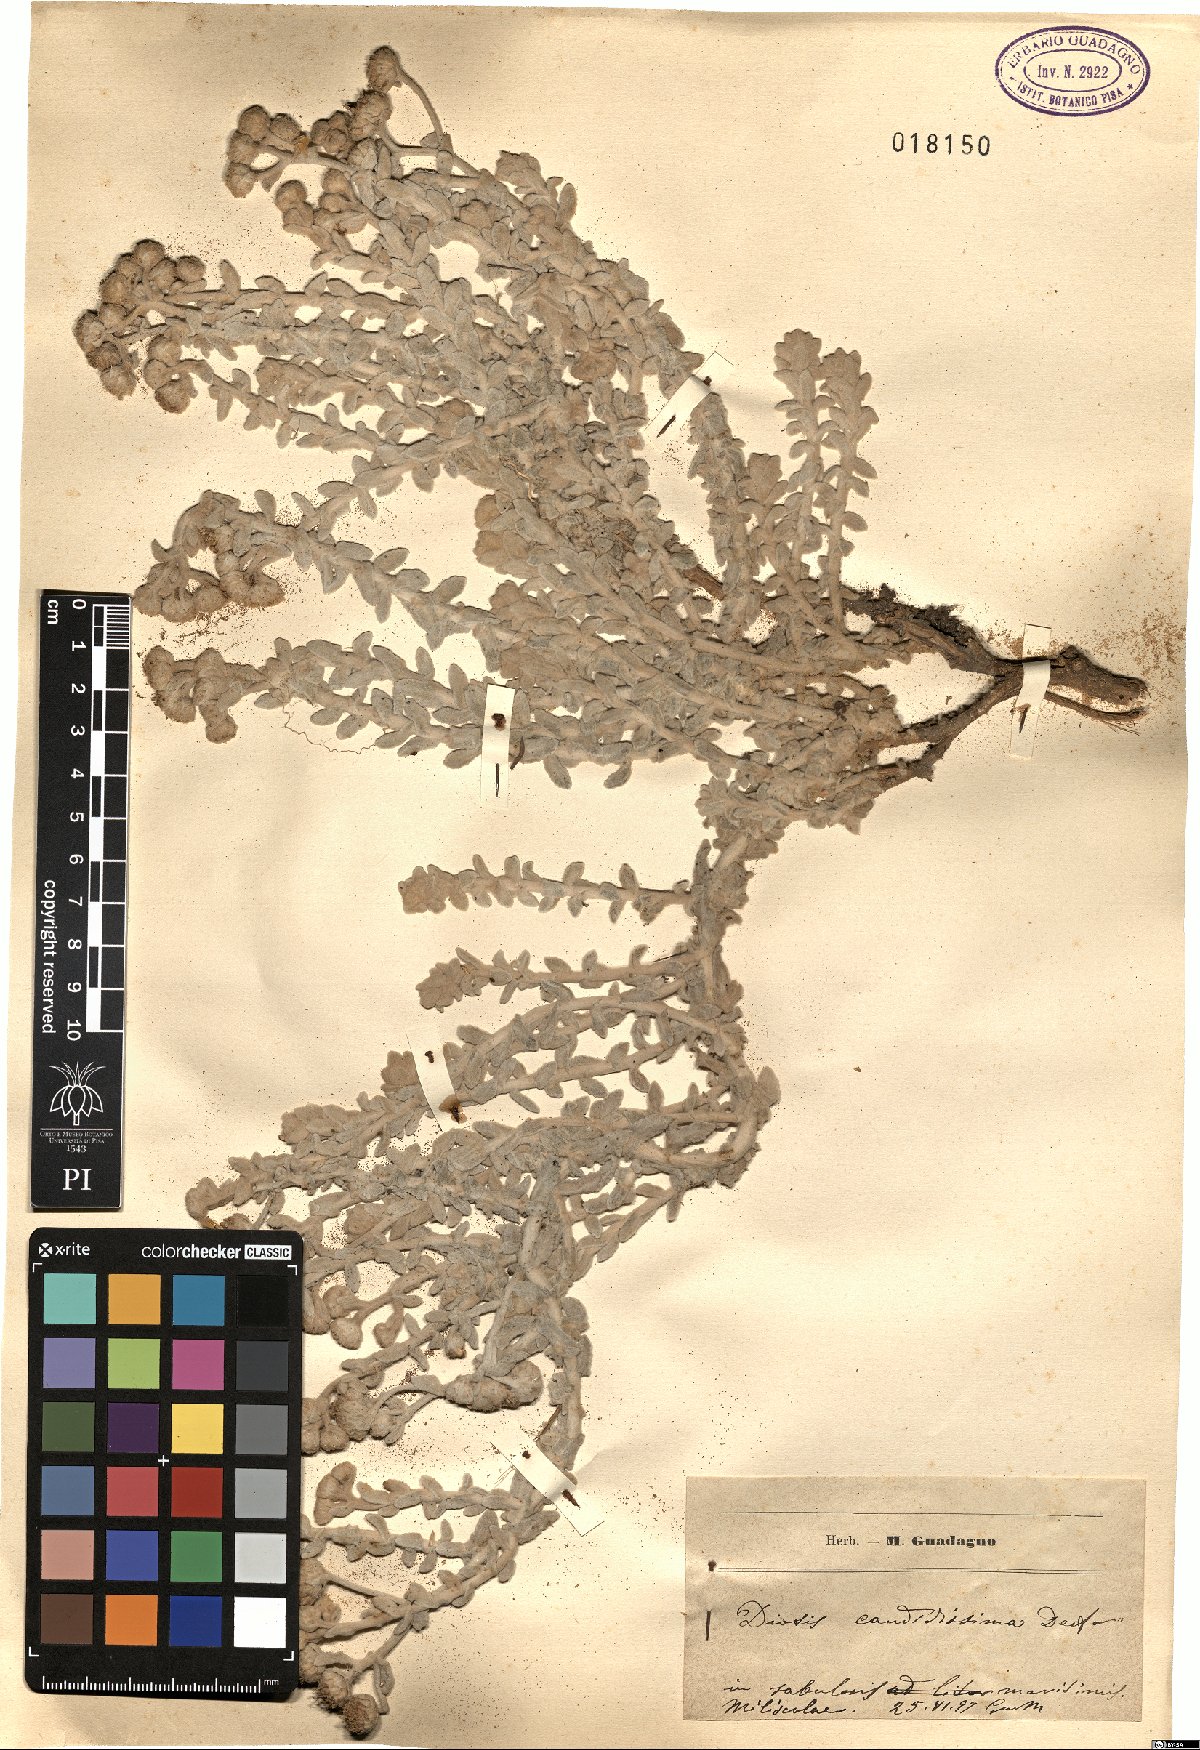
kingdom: Plantae
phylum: Tracheophyta
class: Magnoliopsida
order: Asterales
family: Asteraceae
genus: Achillea
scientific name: Achillea maritima
